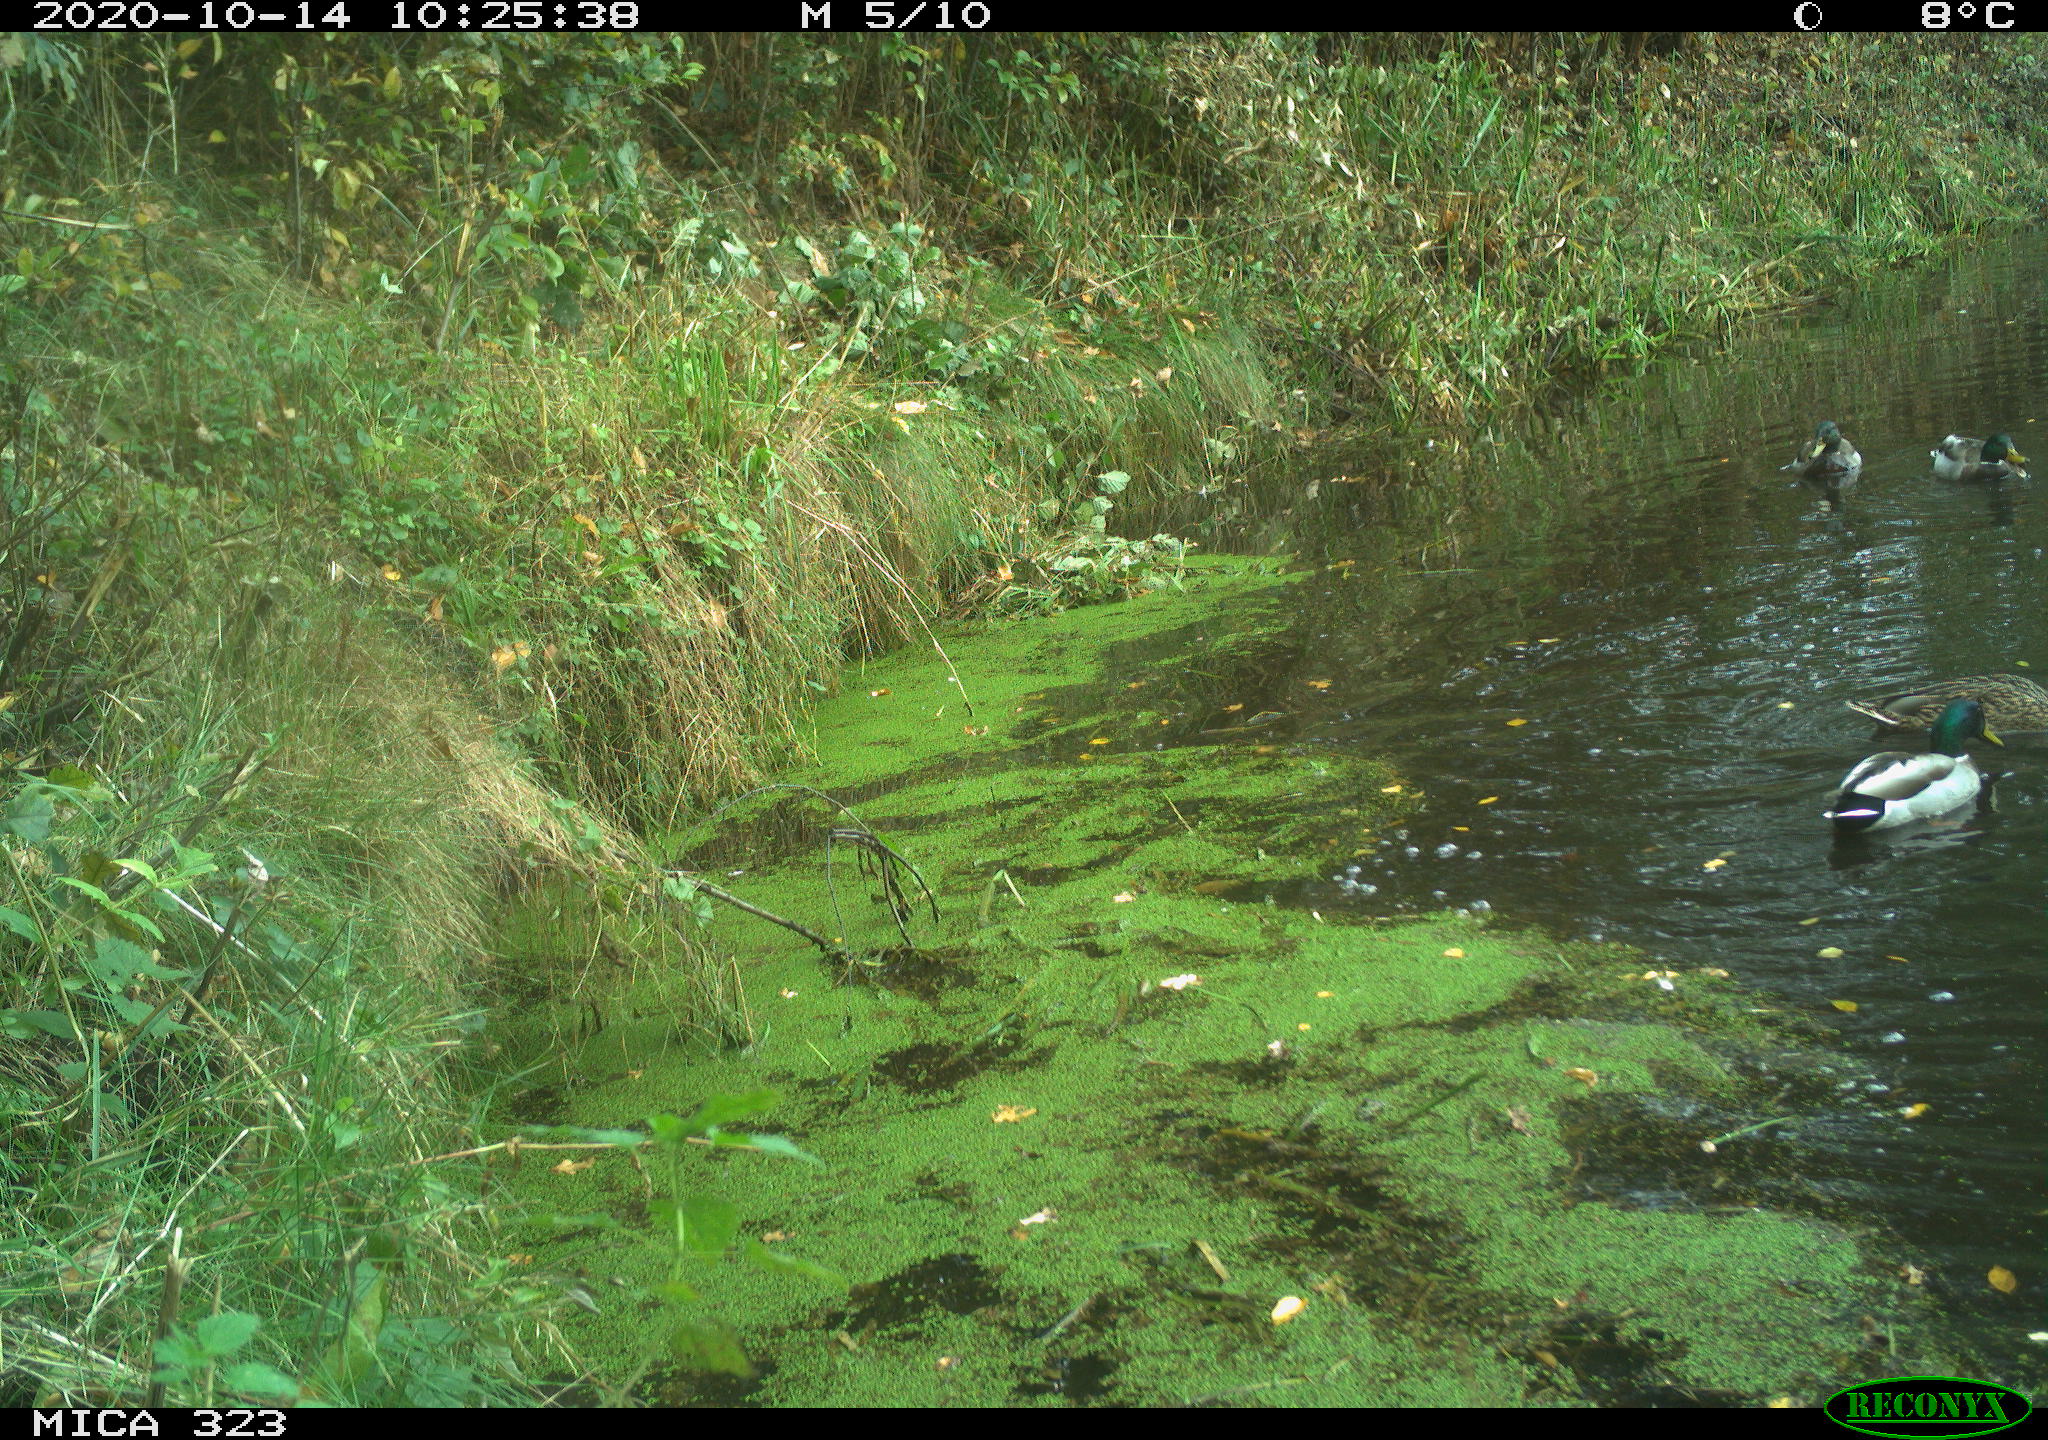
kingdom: Animalia
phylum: Chordata
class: Aves
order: Anseriformes
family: Anatidae
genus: Anas
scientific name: Anas platyrhynchos
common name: Mallard
